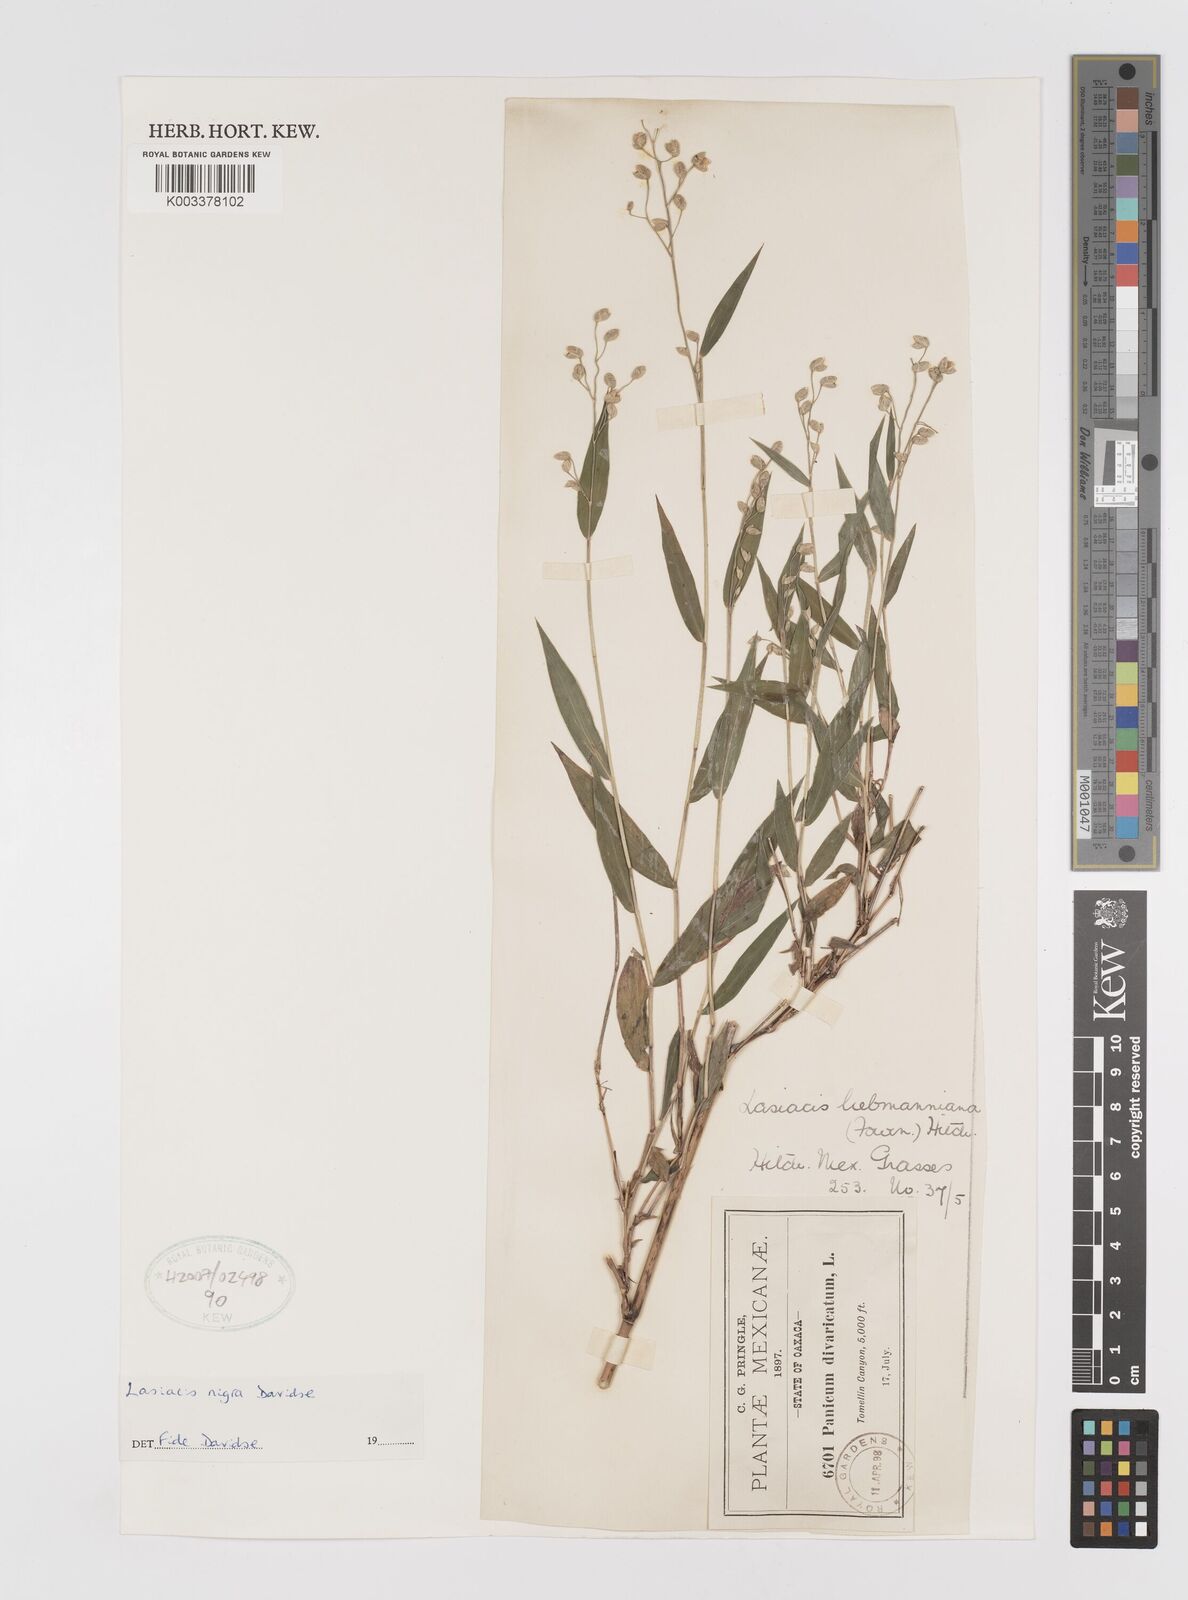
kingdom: Plantae
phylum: Tracheophyta
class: Liliopsida
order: Poales
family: Poaceae
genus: Lasiacis
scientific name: Lasiacis nigra
